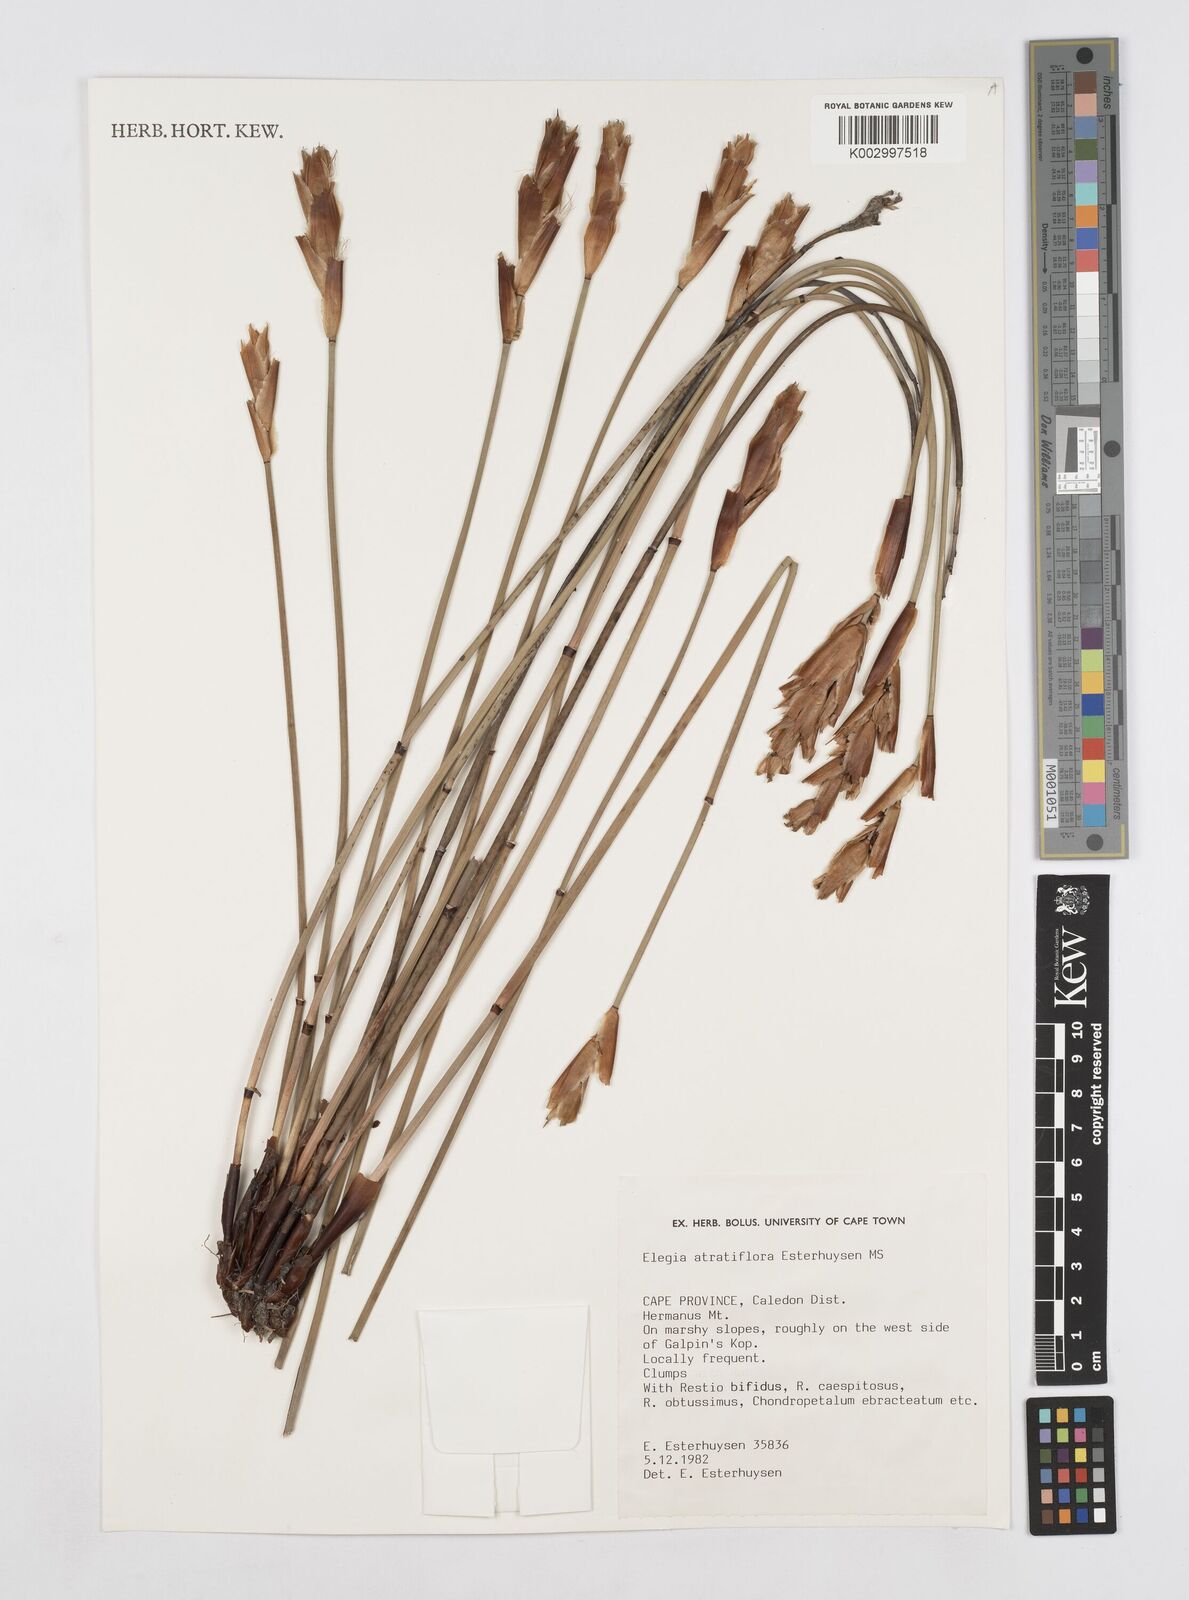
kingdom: Plantae
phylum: Tracheophyta
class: Liliopsida
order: Poales
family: Restionaceae
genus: Elegia
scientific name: Elegia atratiflora
